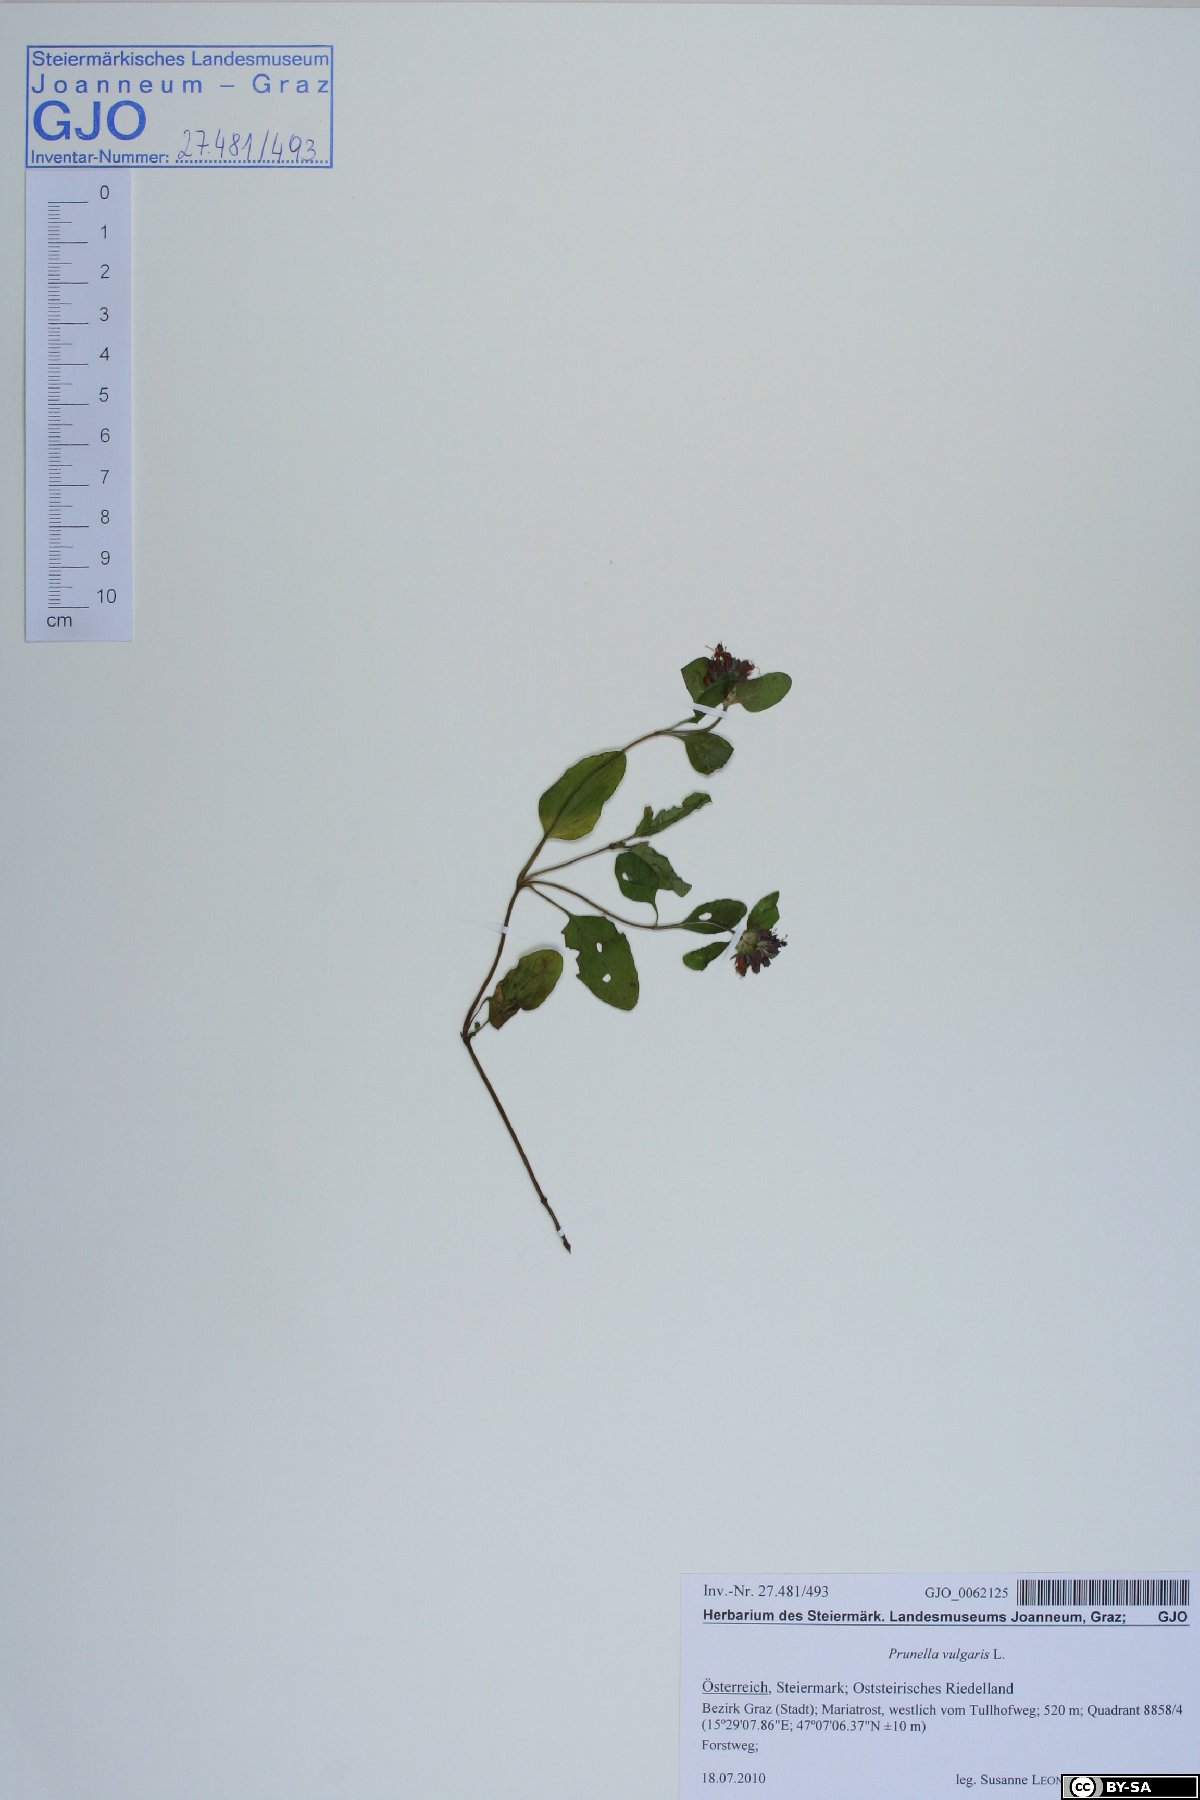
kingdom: Plantae
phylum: Tracheophyta
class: Magnoliopsida
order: Lamiales
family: Lamiaceae
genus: Prunella
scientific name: Prunella vulgaris
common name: Heal-all
